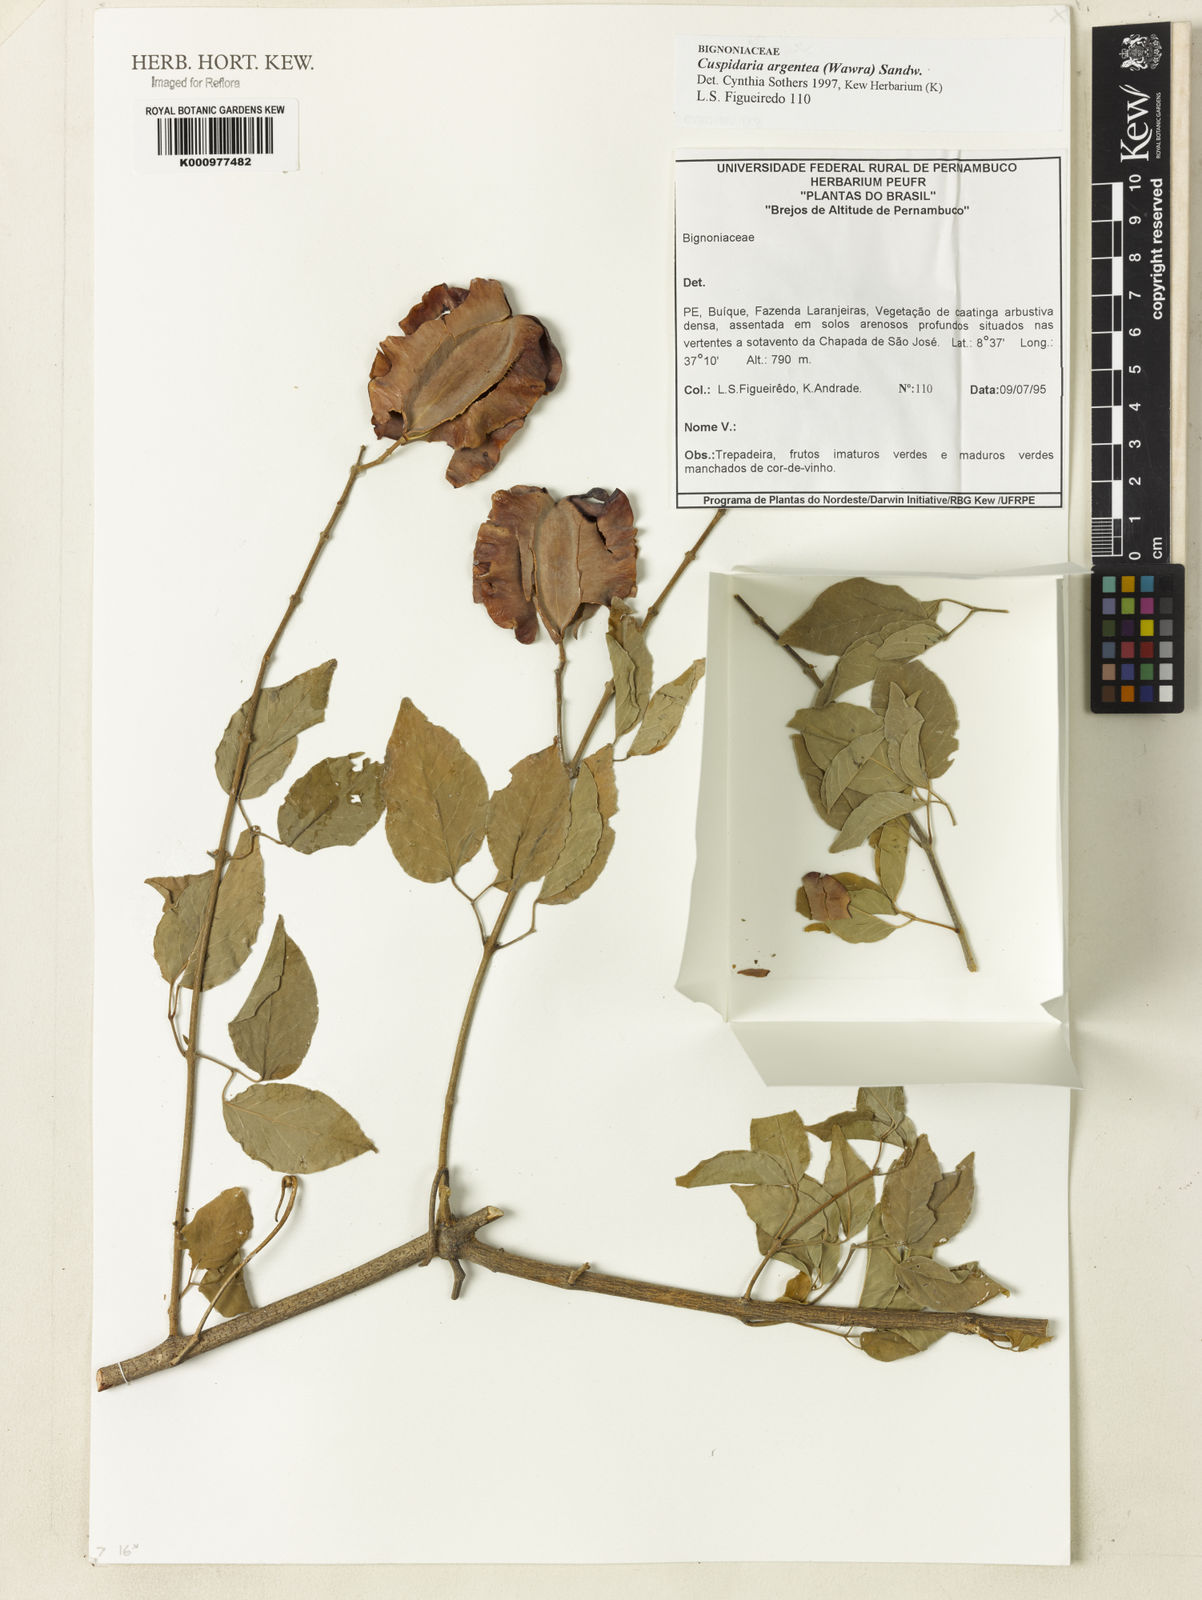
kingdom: Plantae
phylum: Tracheophyta
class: Magnoliopsida
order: Lamiales
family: Bignoniaceae
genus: Cuspidaria
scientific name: Cuspidaria argentea
